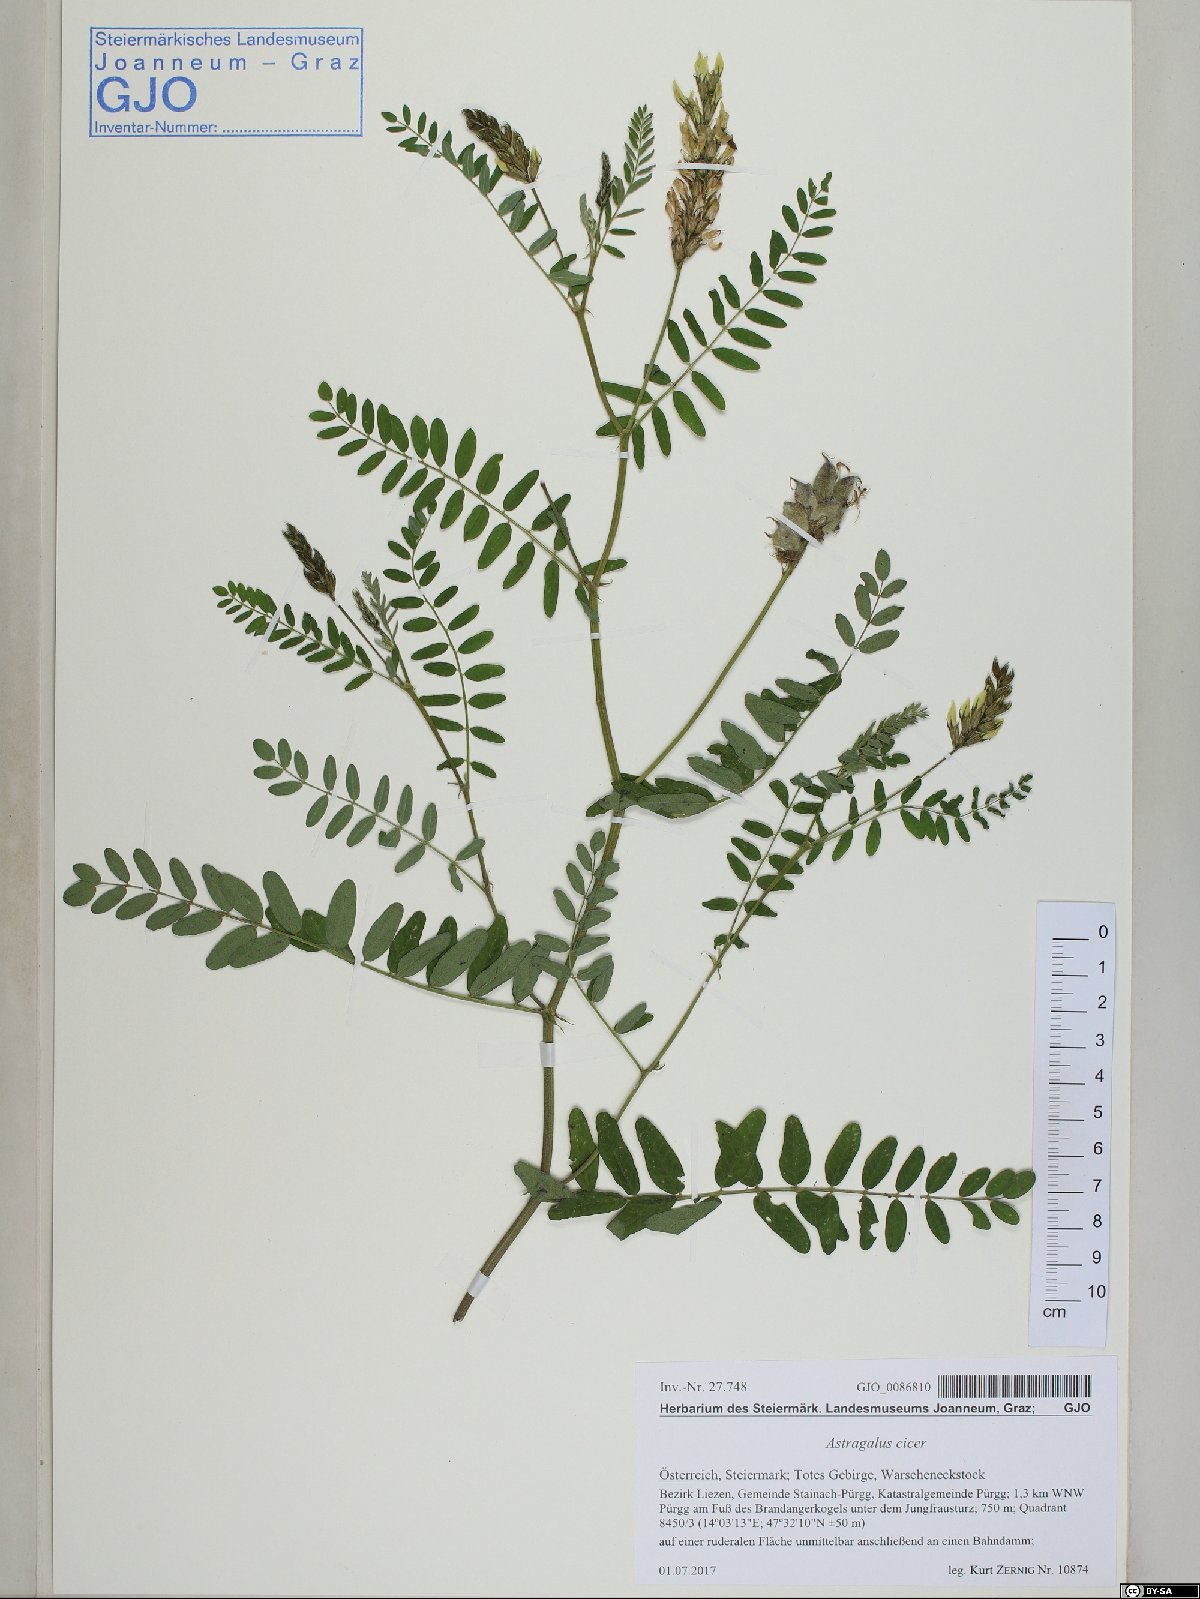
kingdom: Plantae
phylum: Tracheophyta
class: Magnoliopsida
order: Fabales
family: Fabaceae
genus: Astragalus
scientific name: Astragalus cicer
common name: Chick-pea milk-vetch
